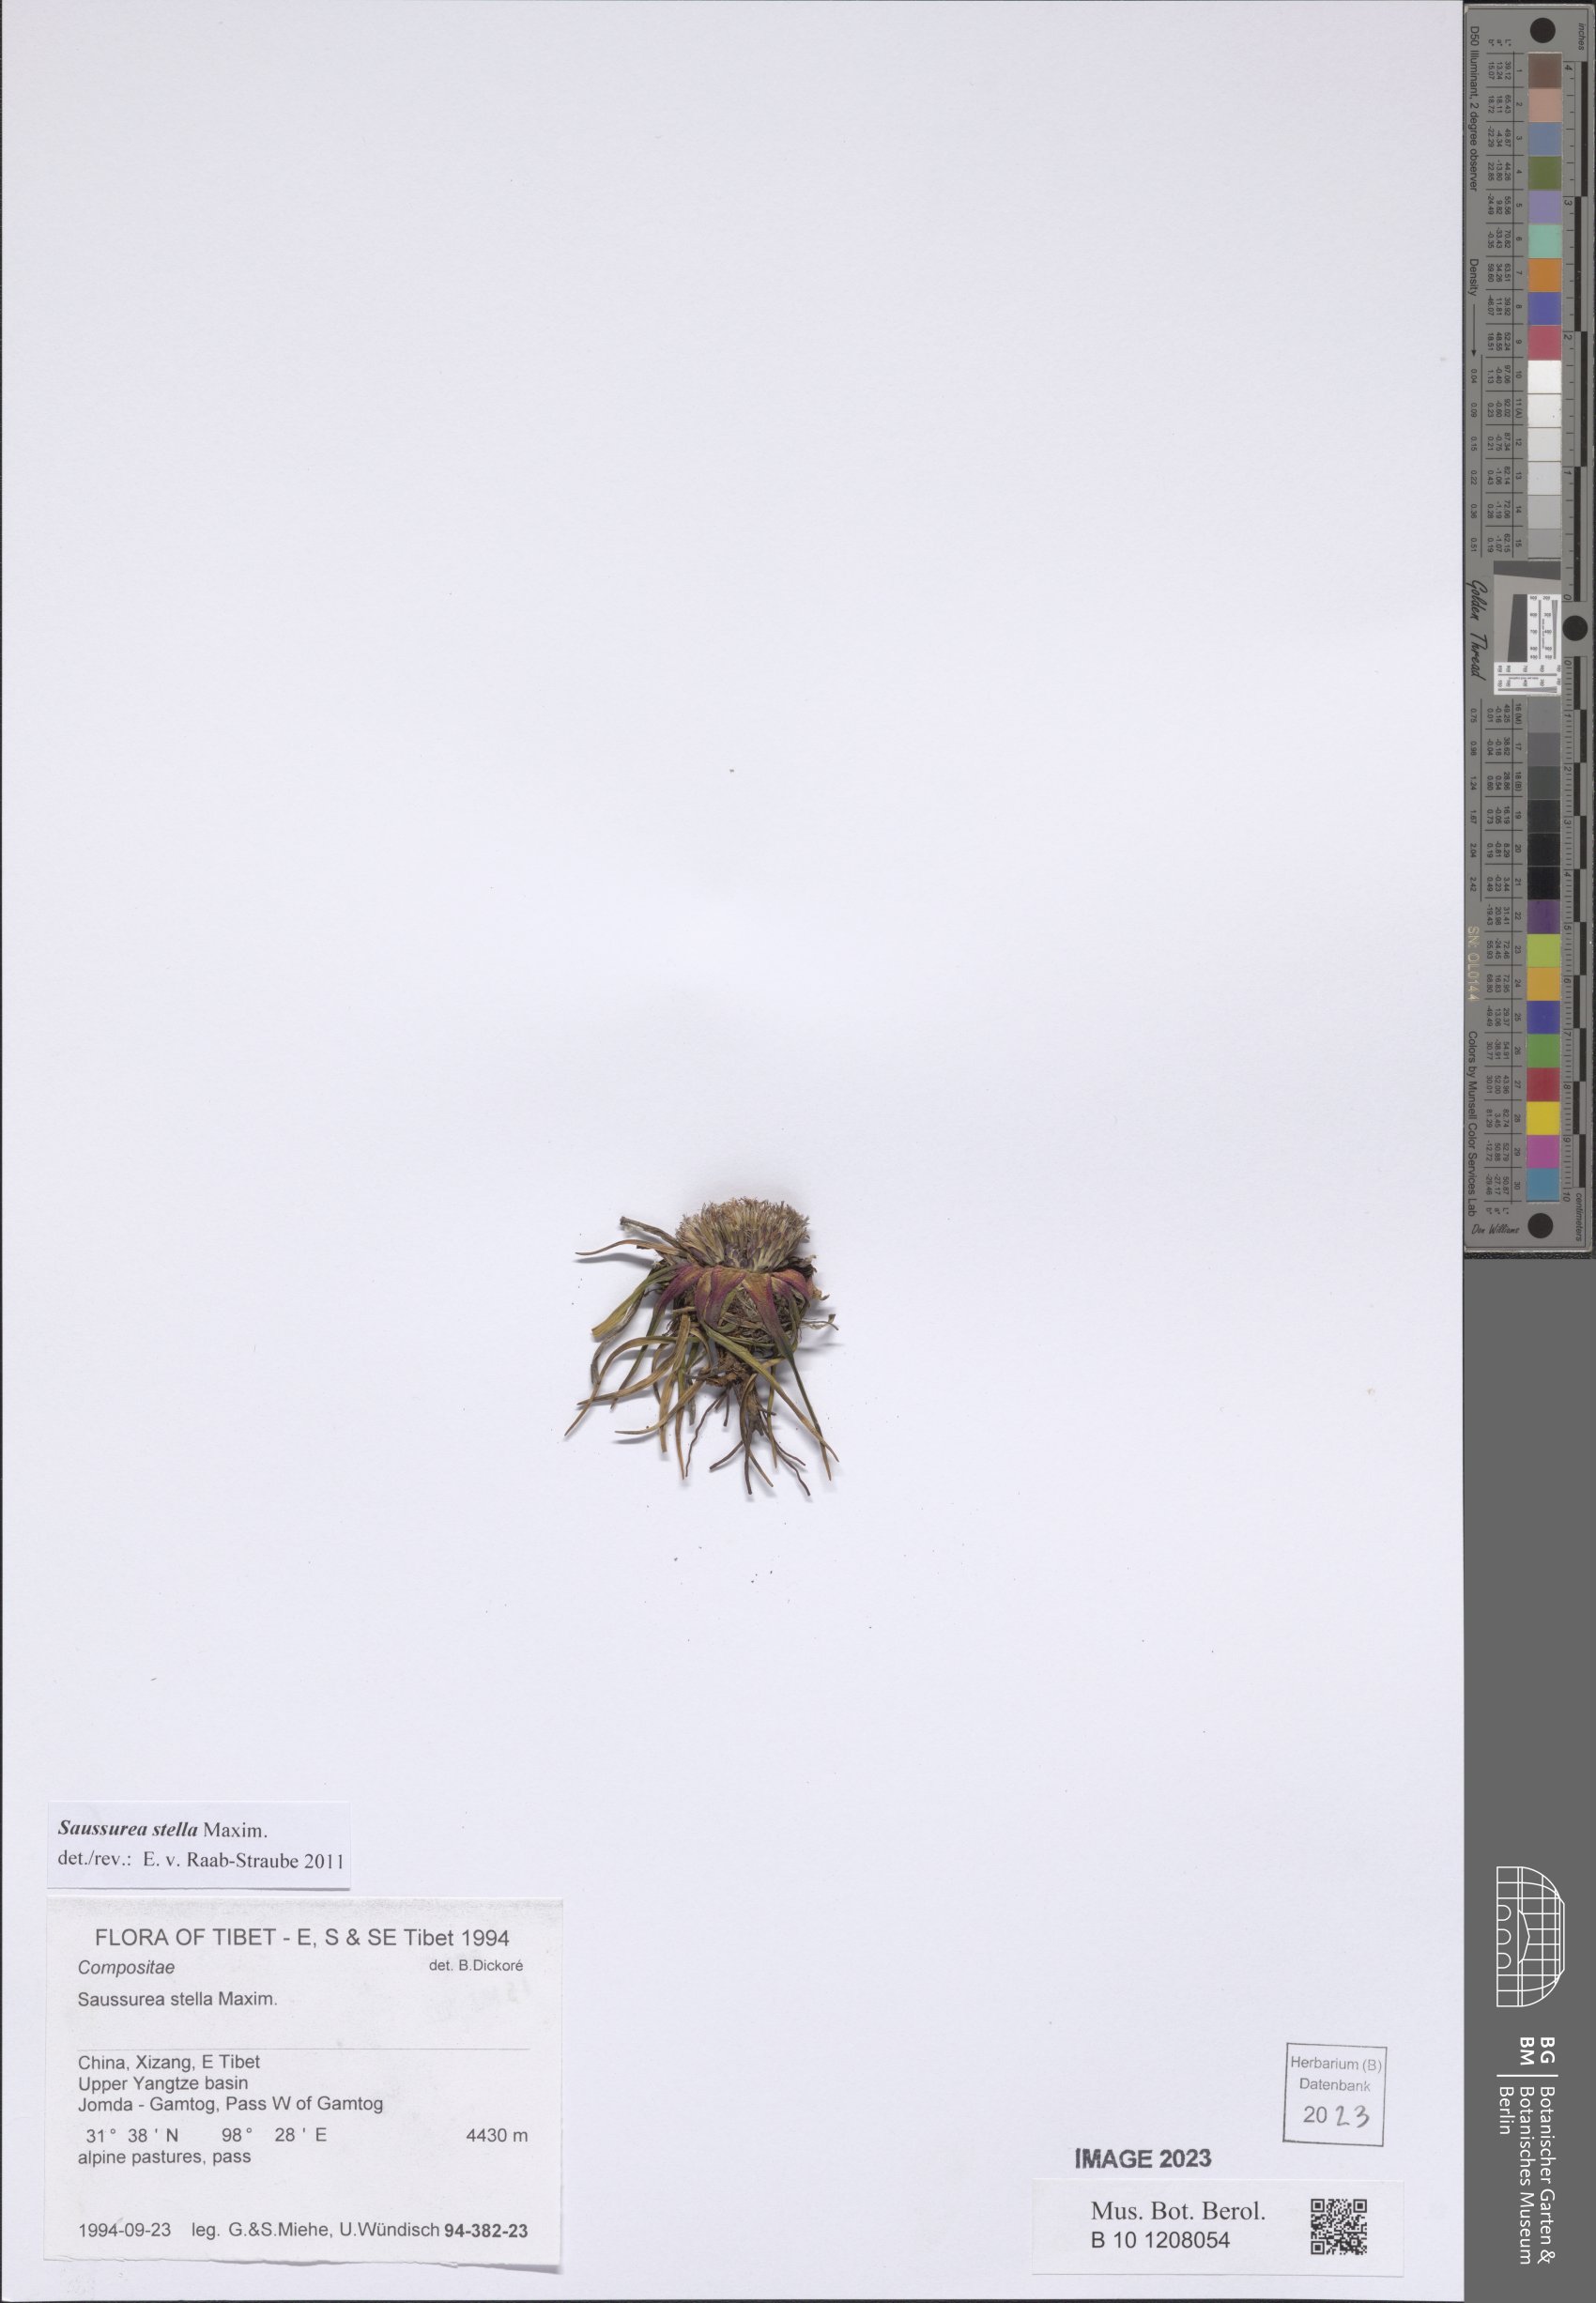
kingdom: Plantae
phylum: Tracheophyta
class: Magnoliopsida
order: Asterales
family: Asteraceae
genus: Saussurea
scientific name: Saussurea stella
